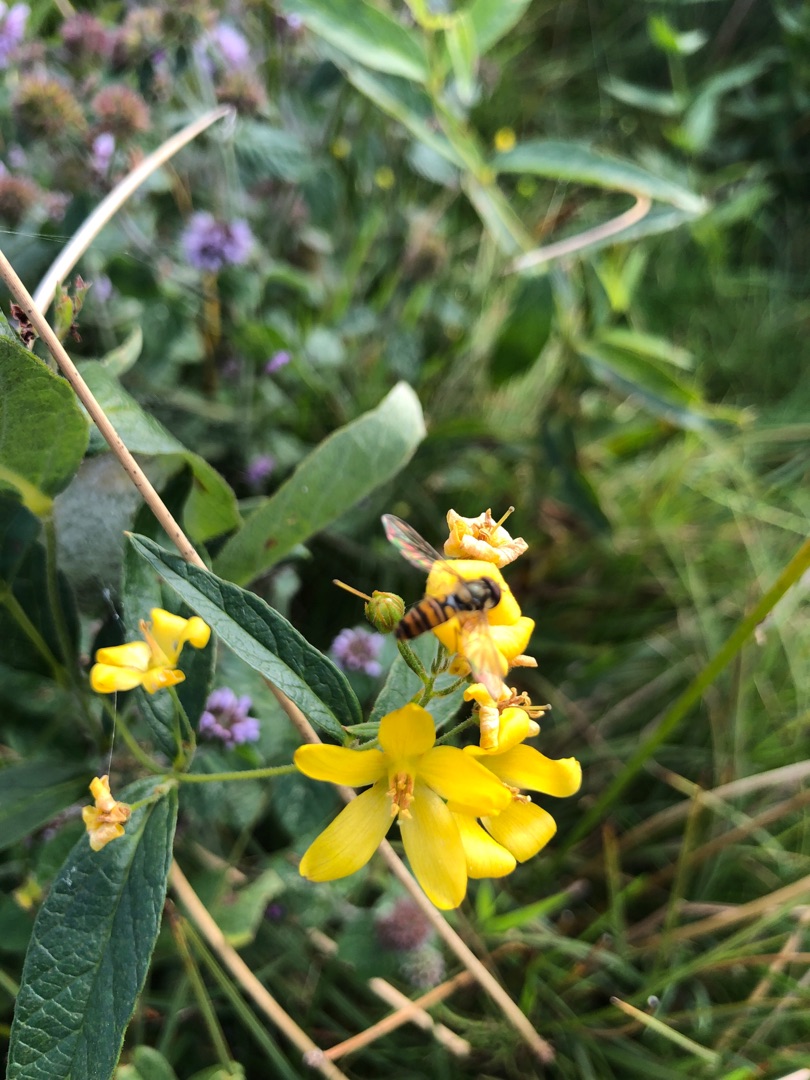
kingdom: Animalia
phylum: Arthropoda
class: Insecta
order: Diptera
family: Syrphidae
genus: Episyrphus
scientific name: Episyrphus balteatus
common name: Dobbeltbåndet svirreflue
